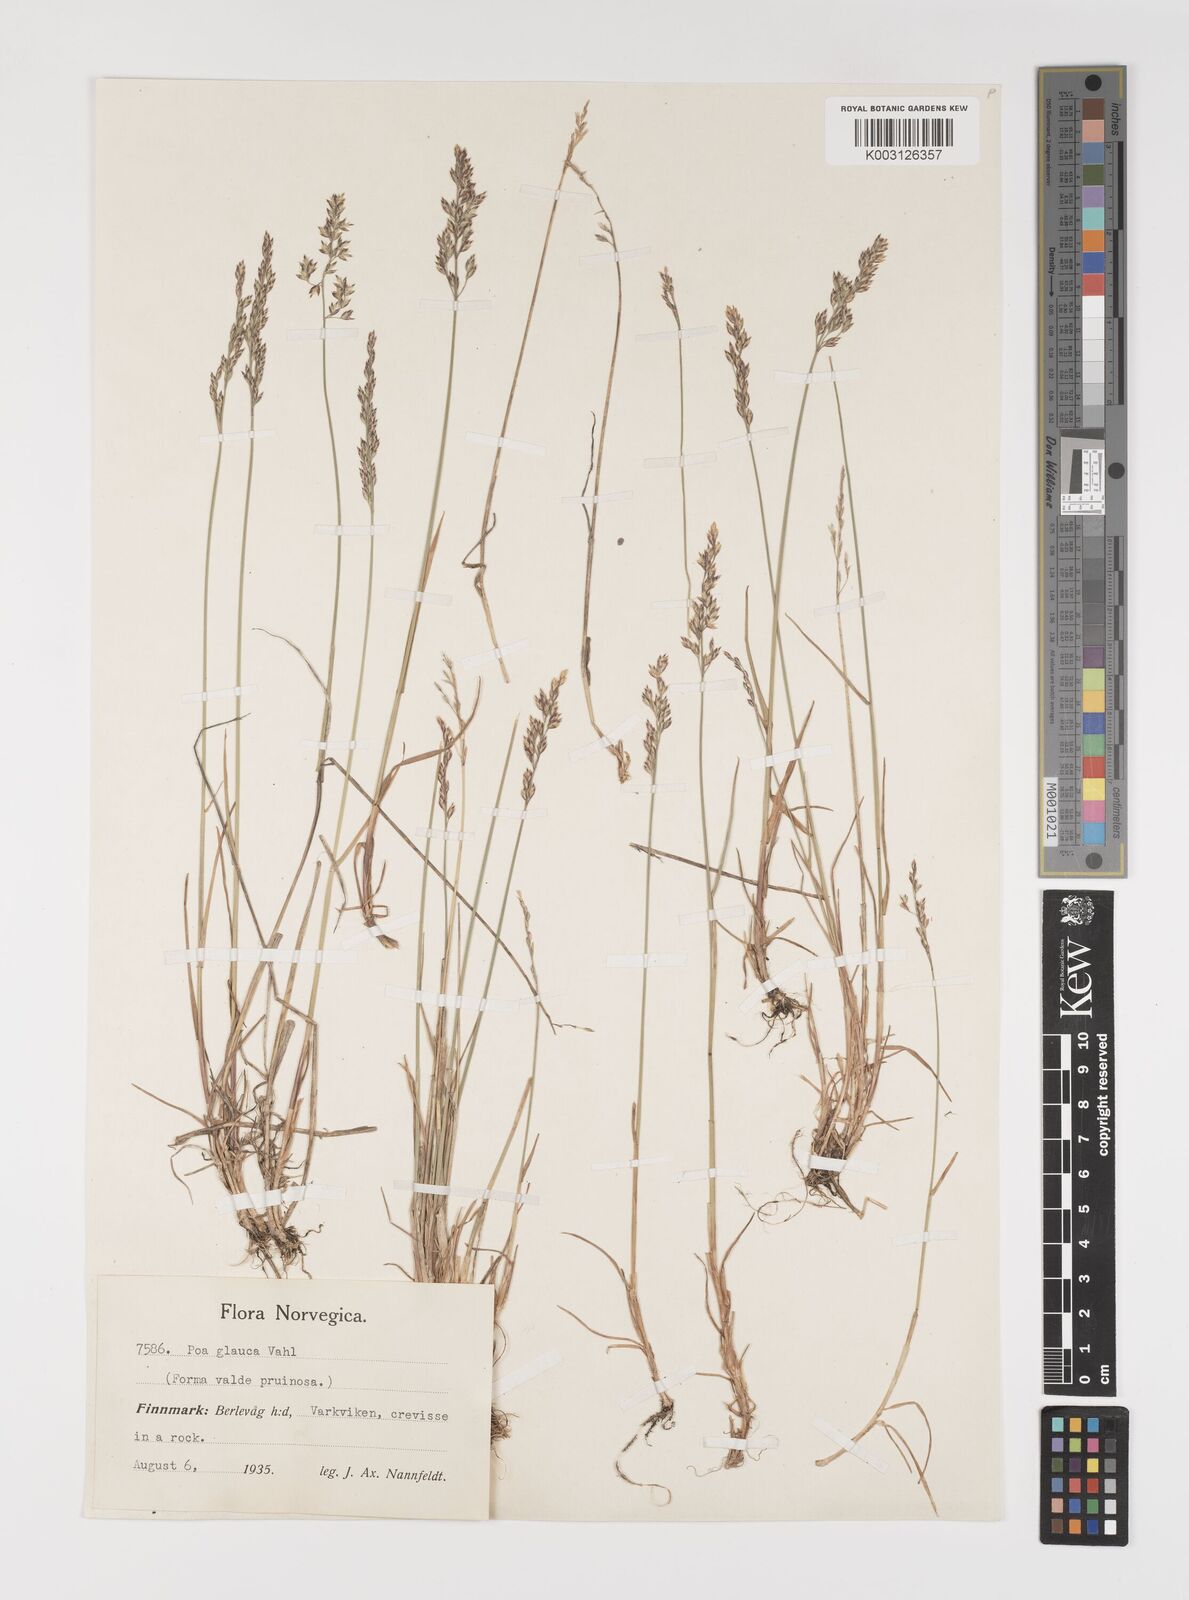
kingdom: Plantae
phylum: Tracheophyta
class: Liliopsida
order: Poales
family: Poaceae
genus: Poa
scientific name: Poa glauca
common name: Glaucous bluegrass
